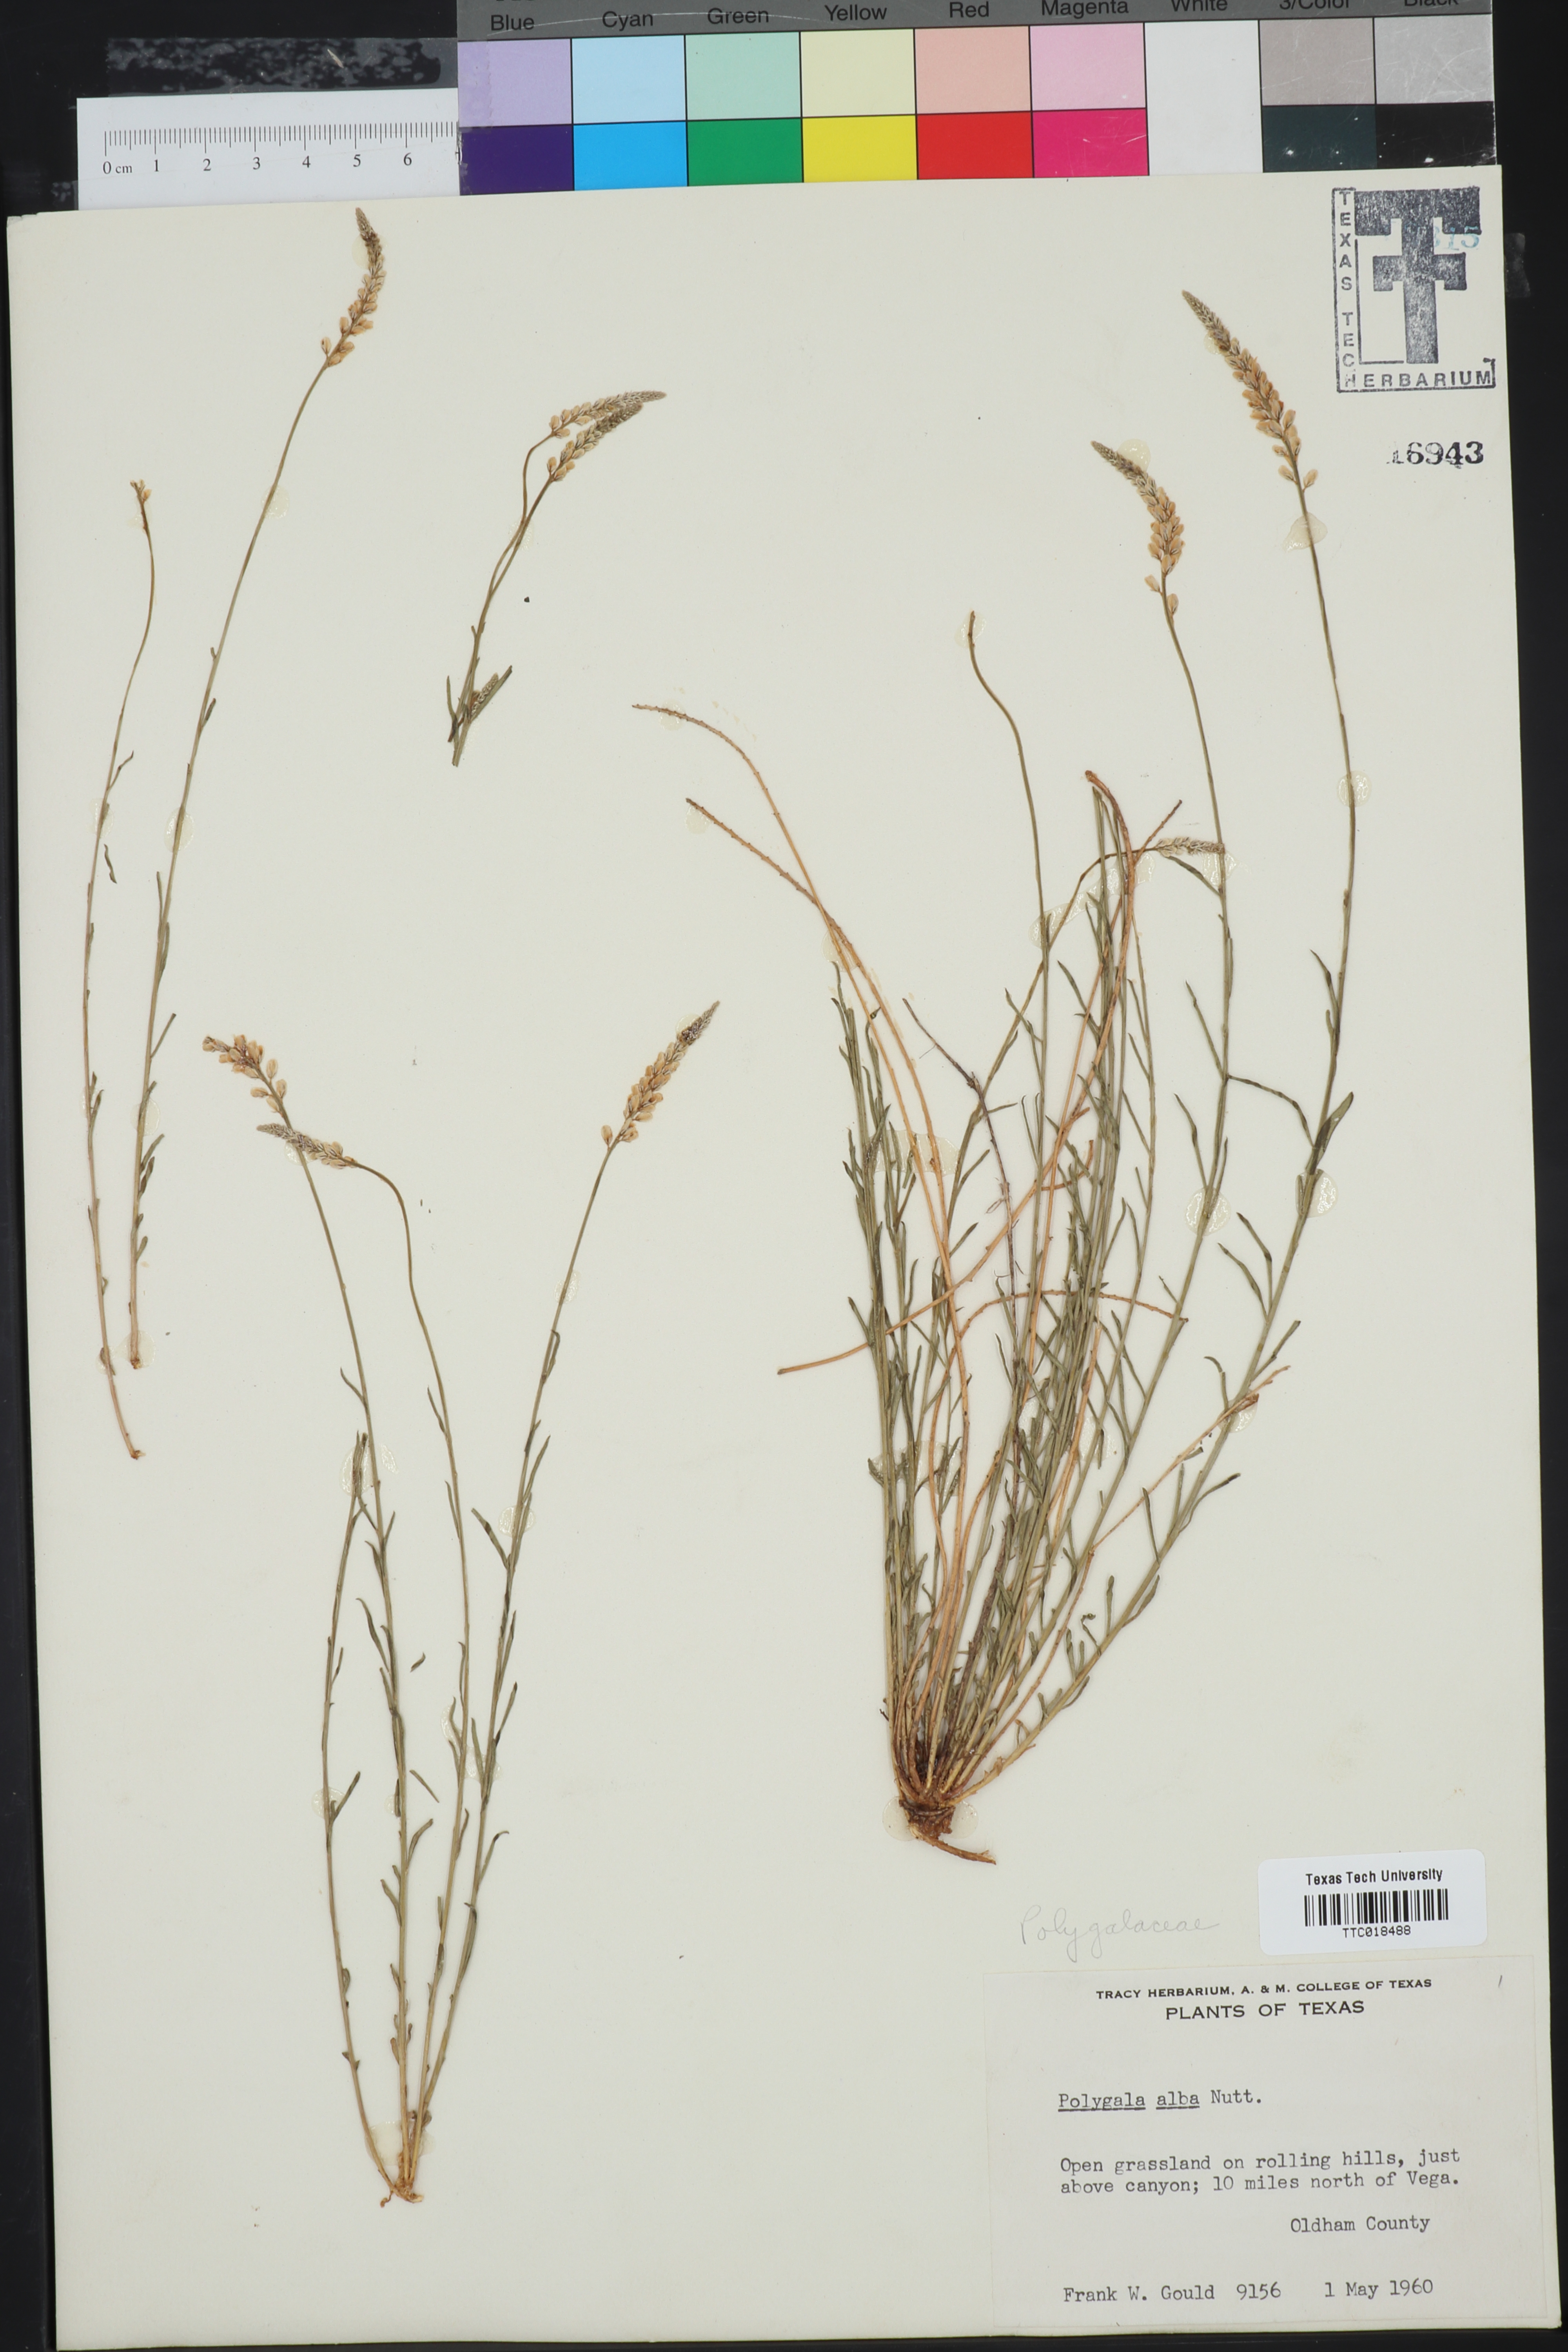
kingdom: Plantae
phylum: Tracheophyta
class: Magnoliopsida
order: Fabales
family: Polygalaceae
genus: Polygala
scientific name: Polygala alba
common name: White milkwort
